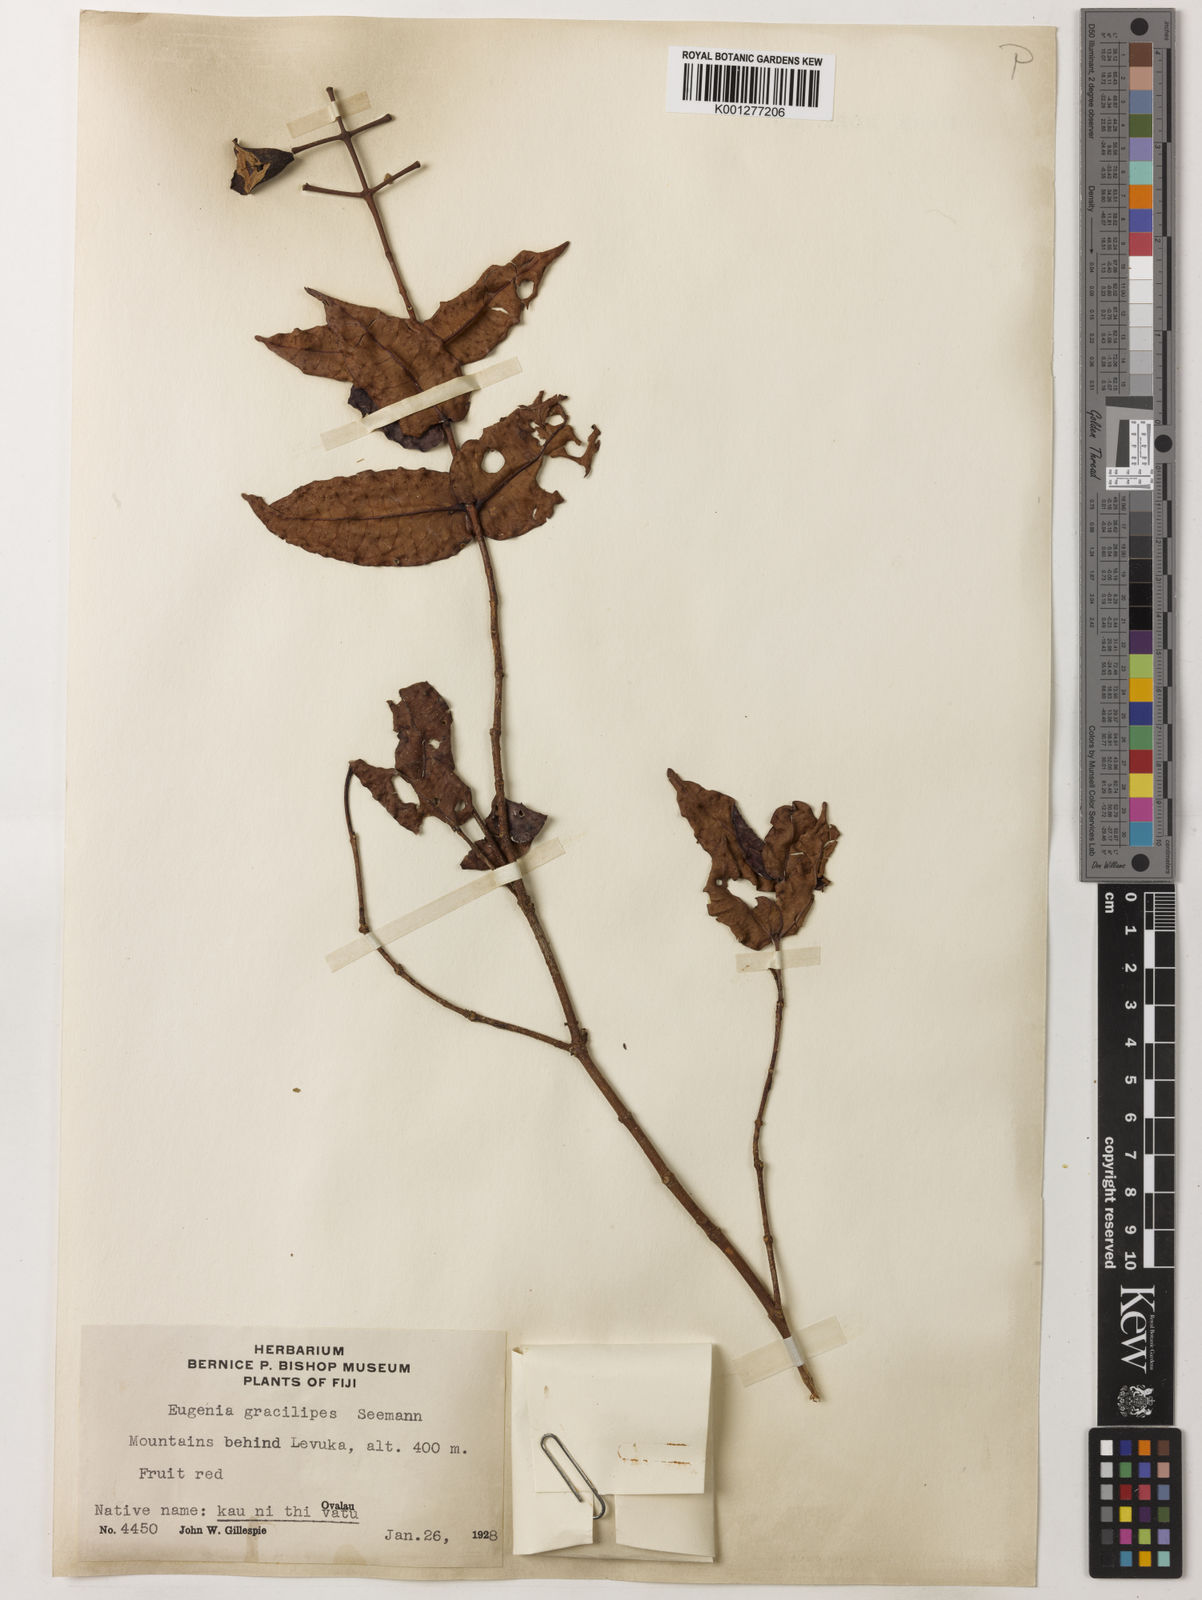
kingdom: Plantae
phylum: Tracheophyta
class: Magnoliopsida
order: Myrtales
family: Myrtaceae
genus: Syzygium
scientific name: Syzygium gracilipes
